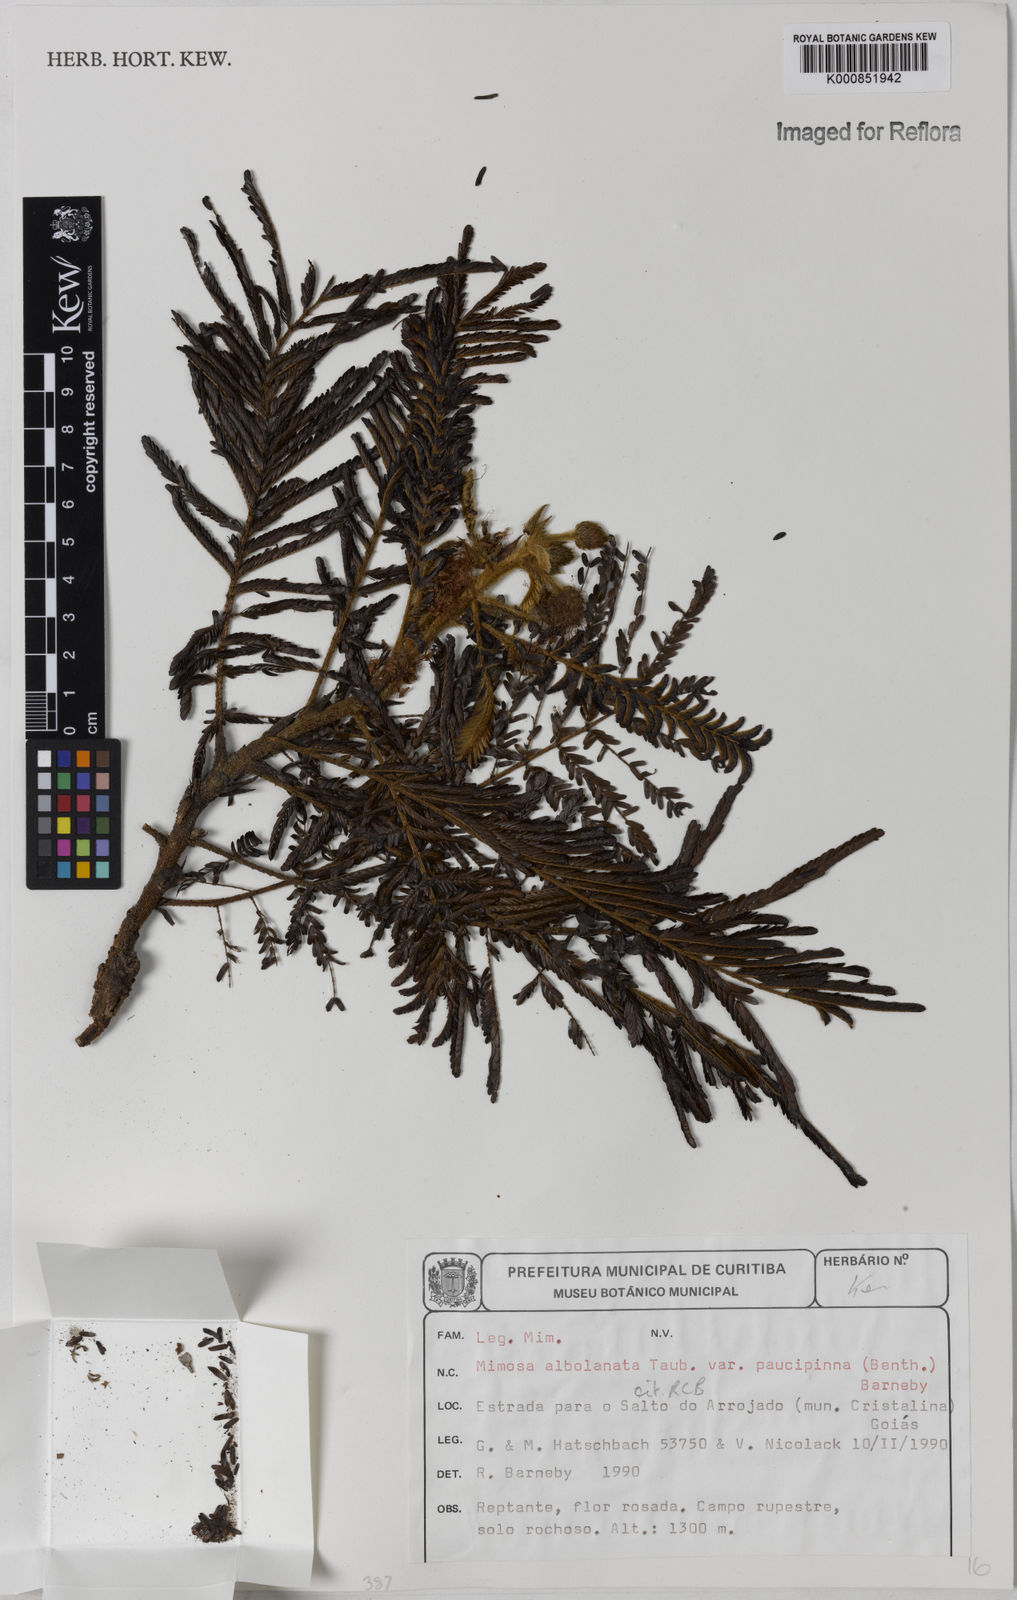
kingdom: Plantae
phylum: Tracheophyta
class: Magnoliopsida
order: Fabales
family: Fabaceae
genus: Mimosa
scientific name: Mimosa albolanata
